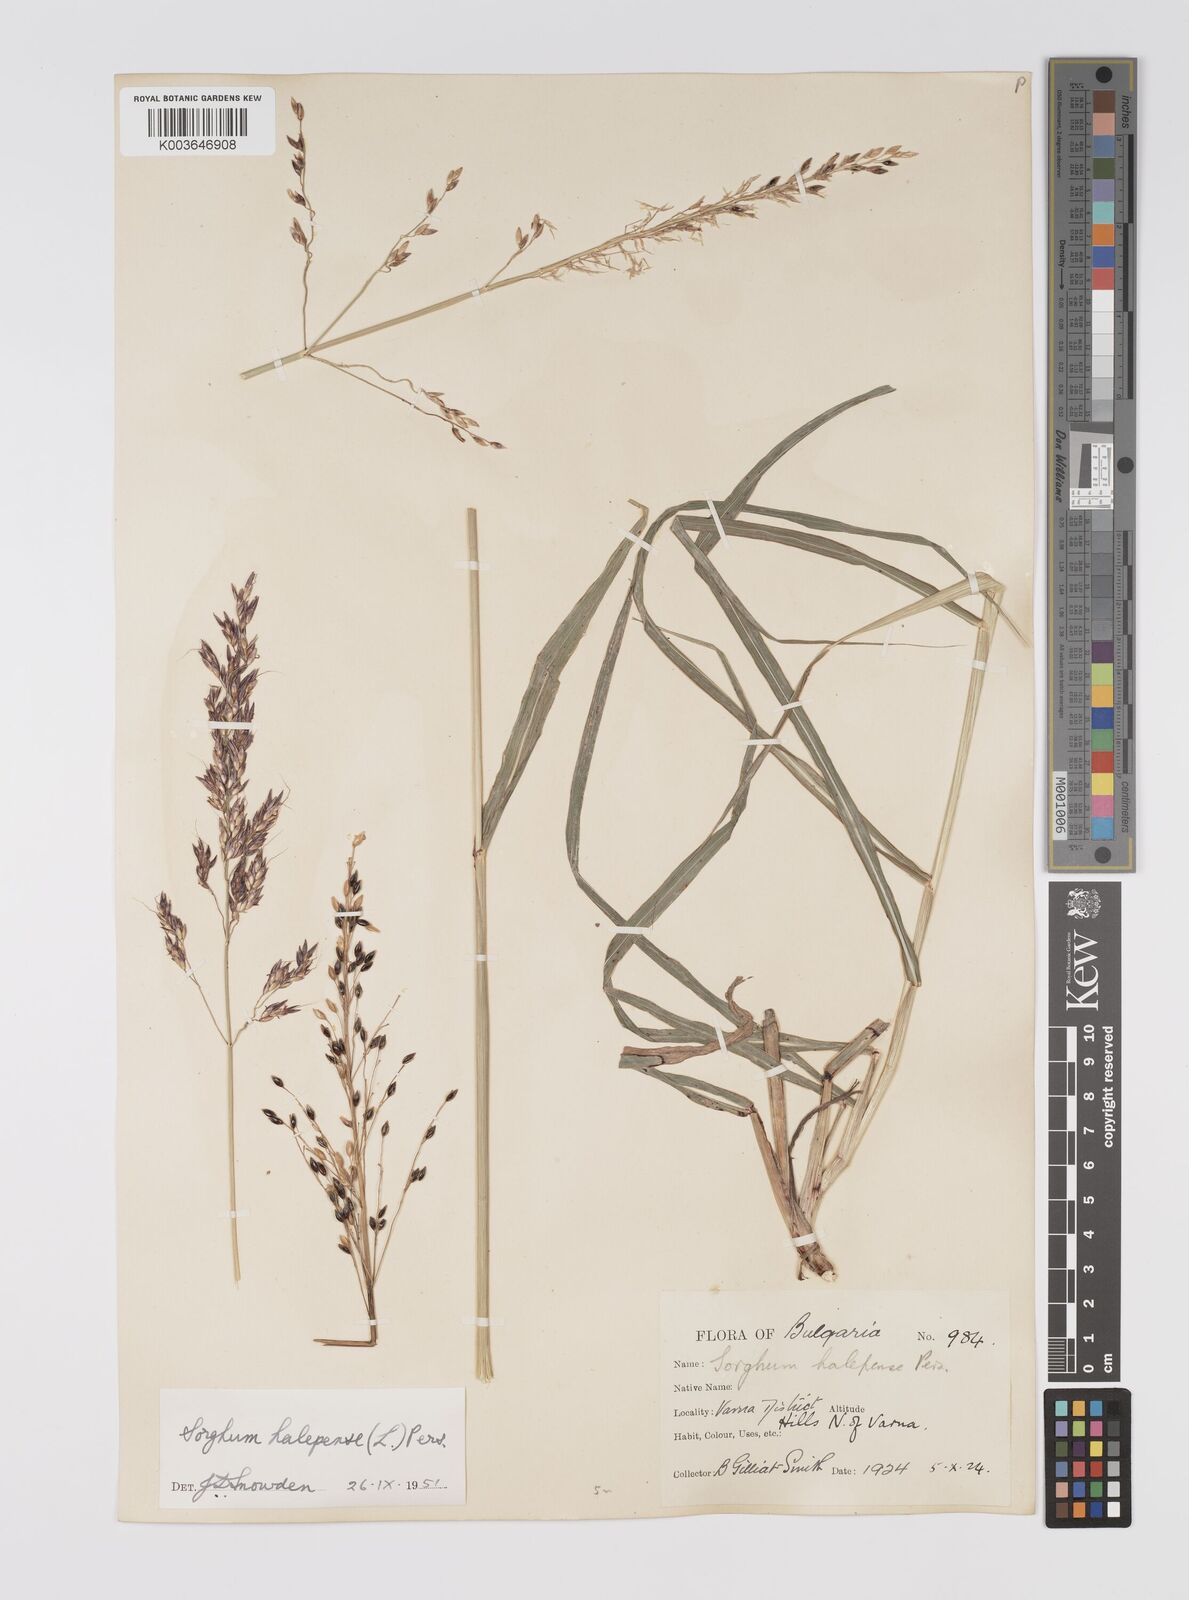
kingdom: Plantae
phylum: Tracheophyta
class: Liliopsida
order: Poales
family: Poaceae
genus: Sorghum
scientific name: Sorghum halepense
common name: Johnson-grass
